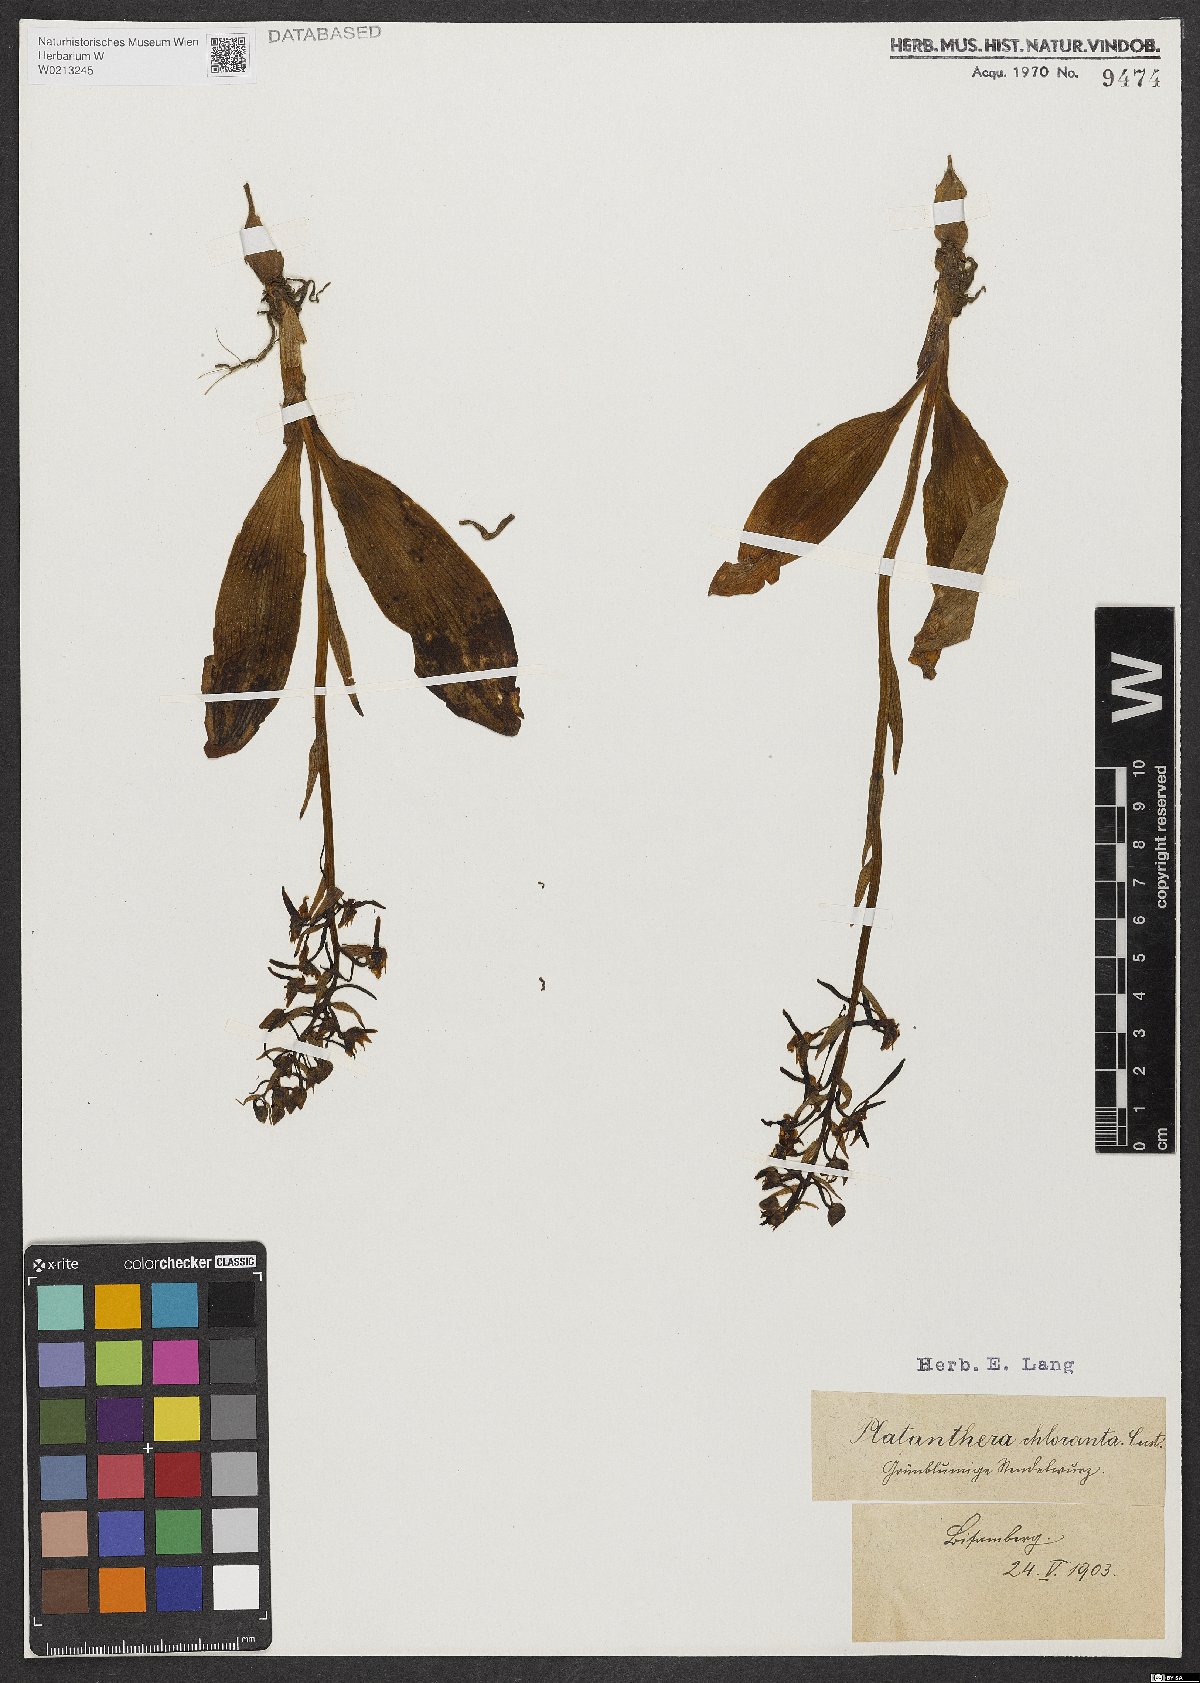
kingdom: Plantae
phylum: Tracheophyta
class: Liliopsida
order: Asparagales
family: Orchidaceae
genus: Platanthera
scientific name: Platanthera chlorantha
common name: Greater butterfly-orchid
